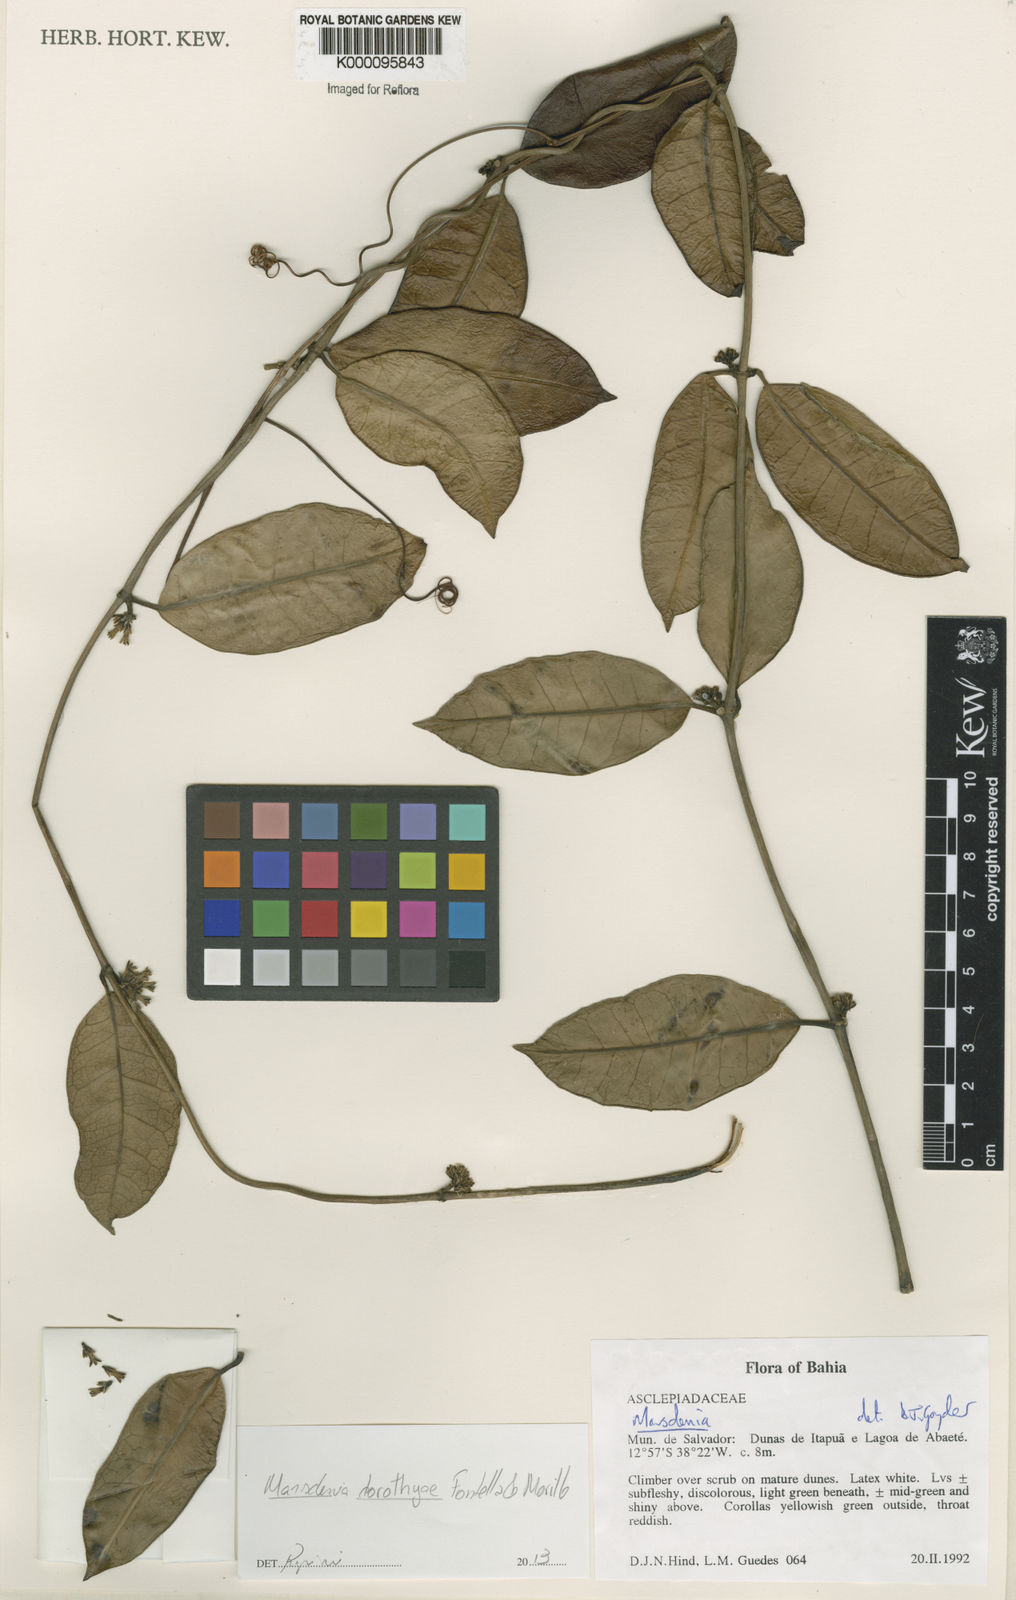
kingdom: Plantae
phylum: Tracheophyta
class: Magnoliopsida
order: Gentianales
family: Apocynaceae
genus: Marsdenia
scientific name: Marsdenia
